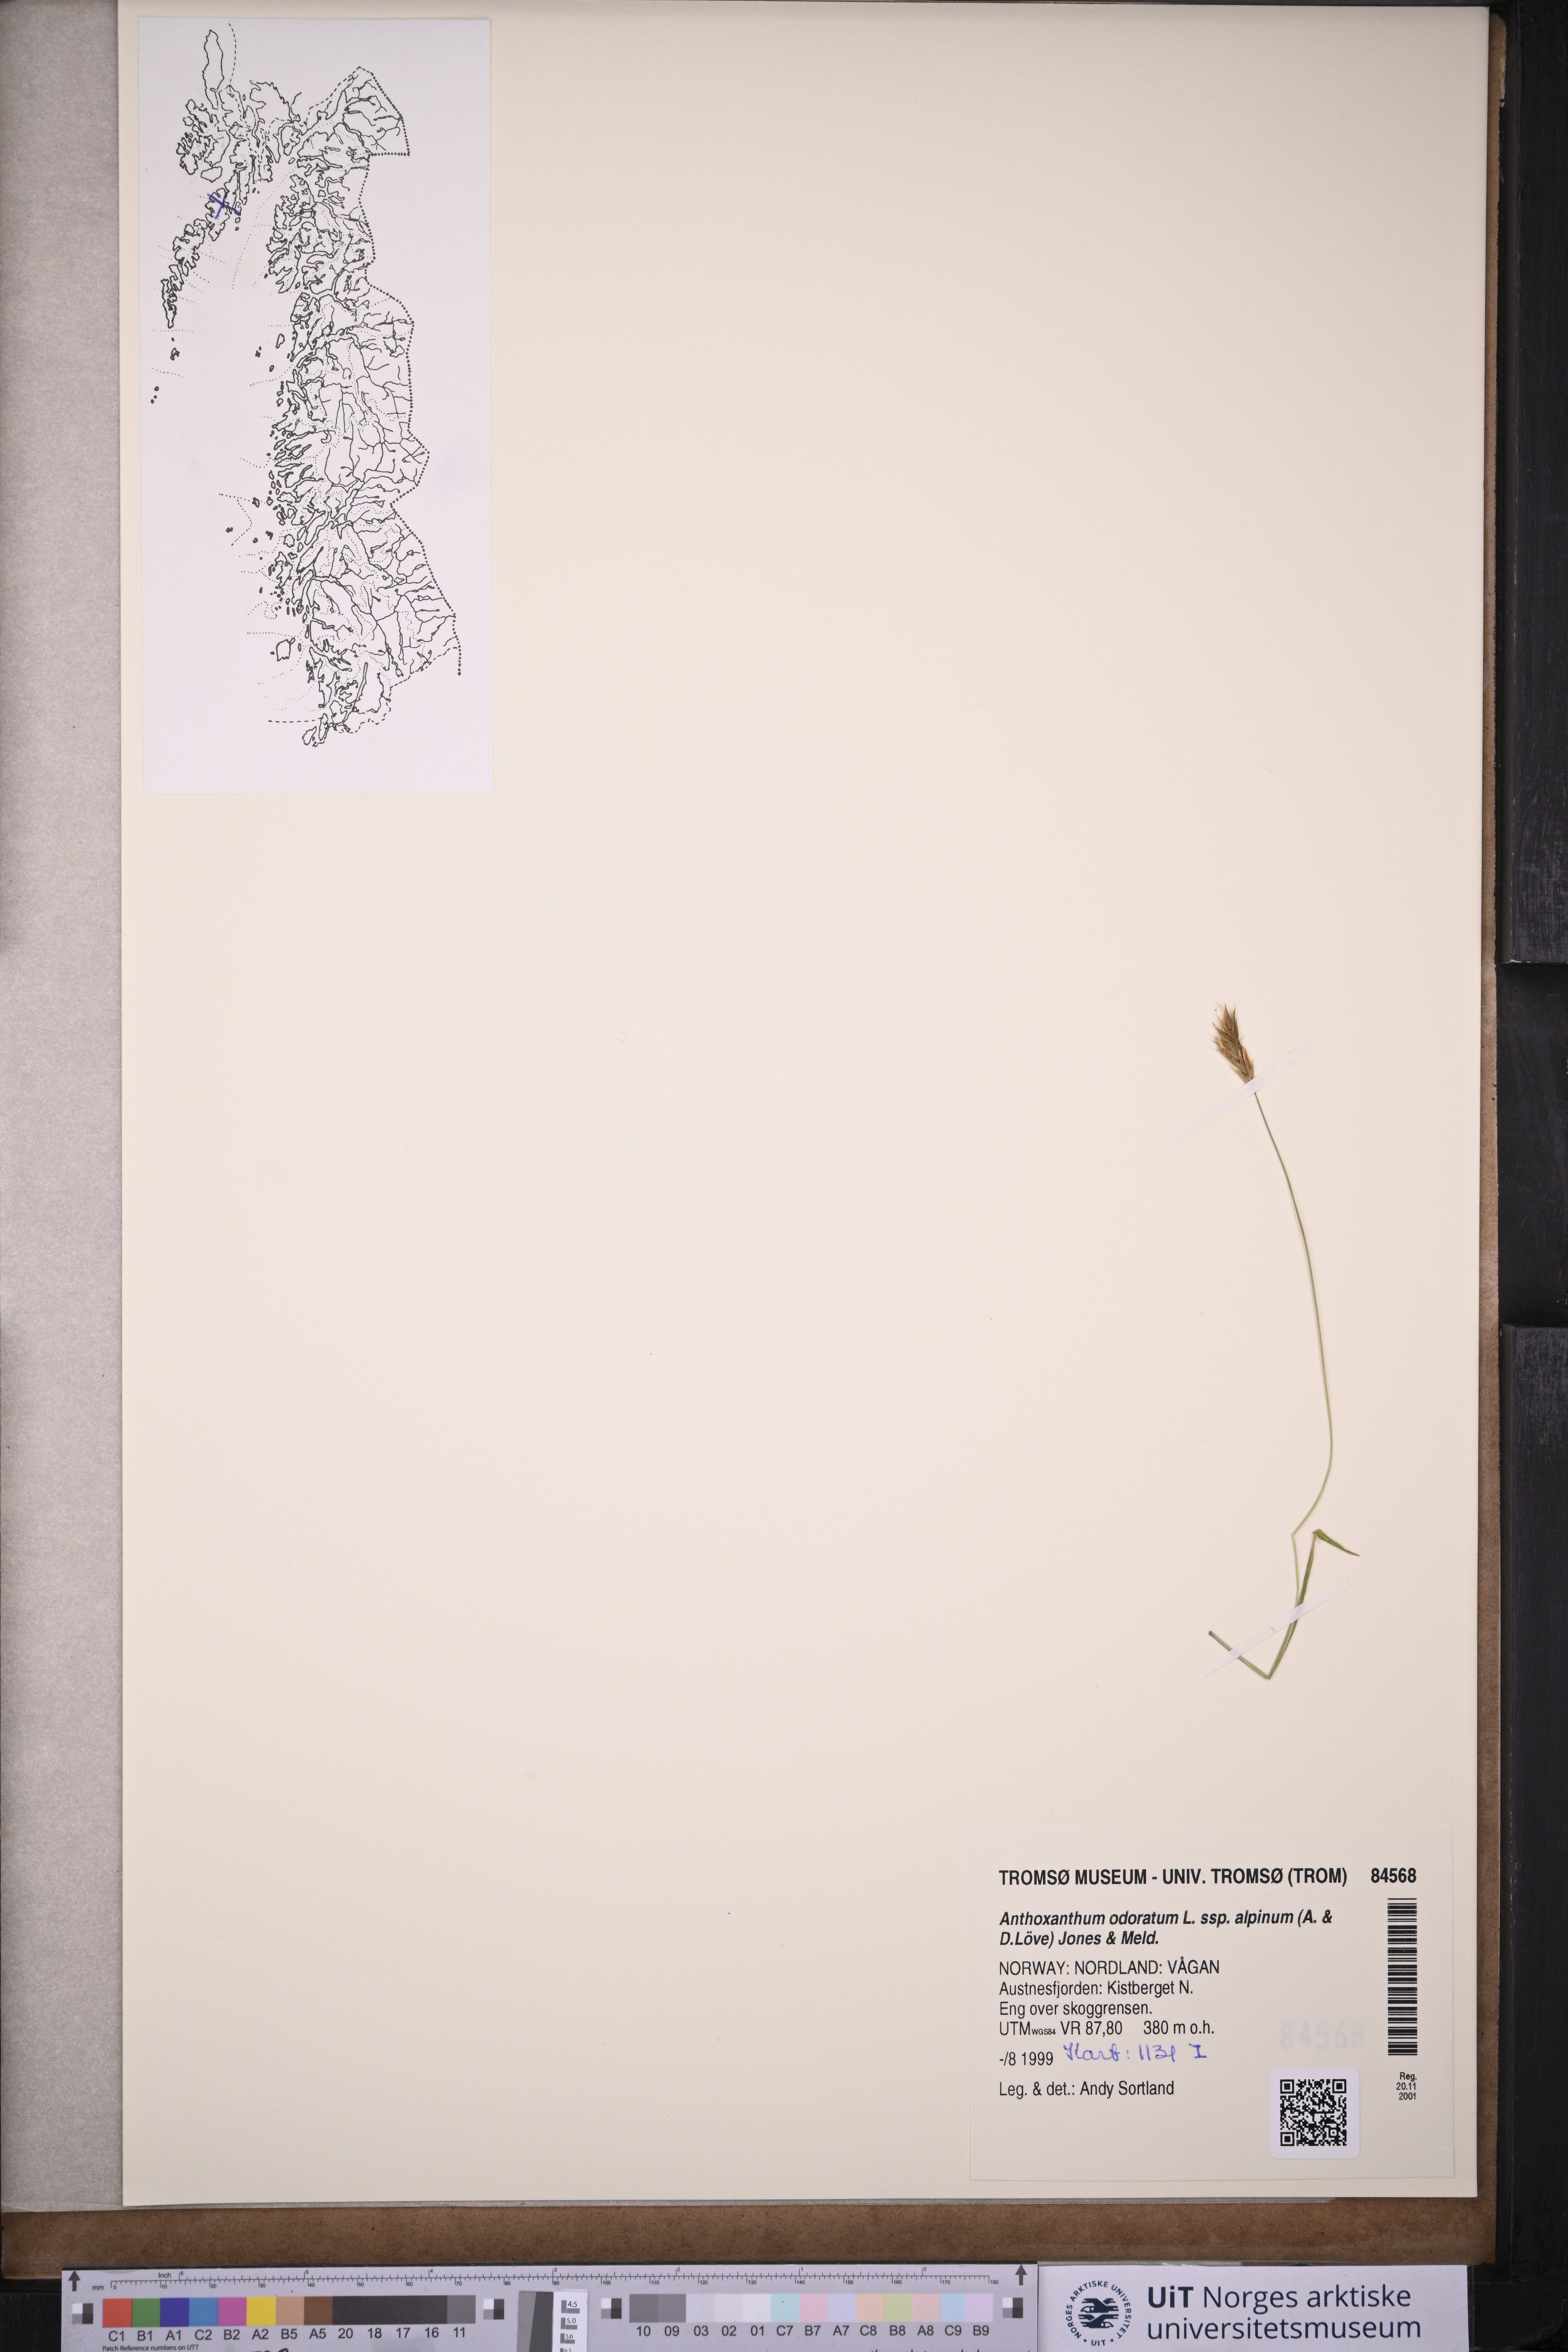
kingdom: Plantae
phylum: Tracheophyta
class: Liliopsida
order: Poales
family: Poaceae
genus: Anthoxanthum
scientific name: Anthoxanthum nipponicum
